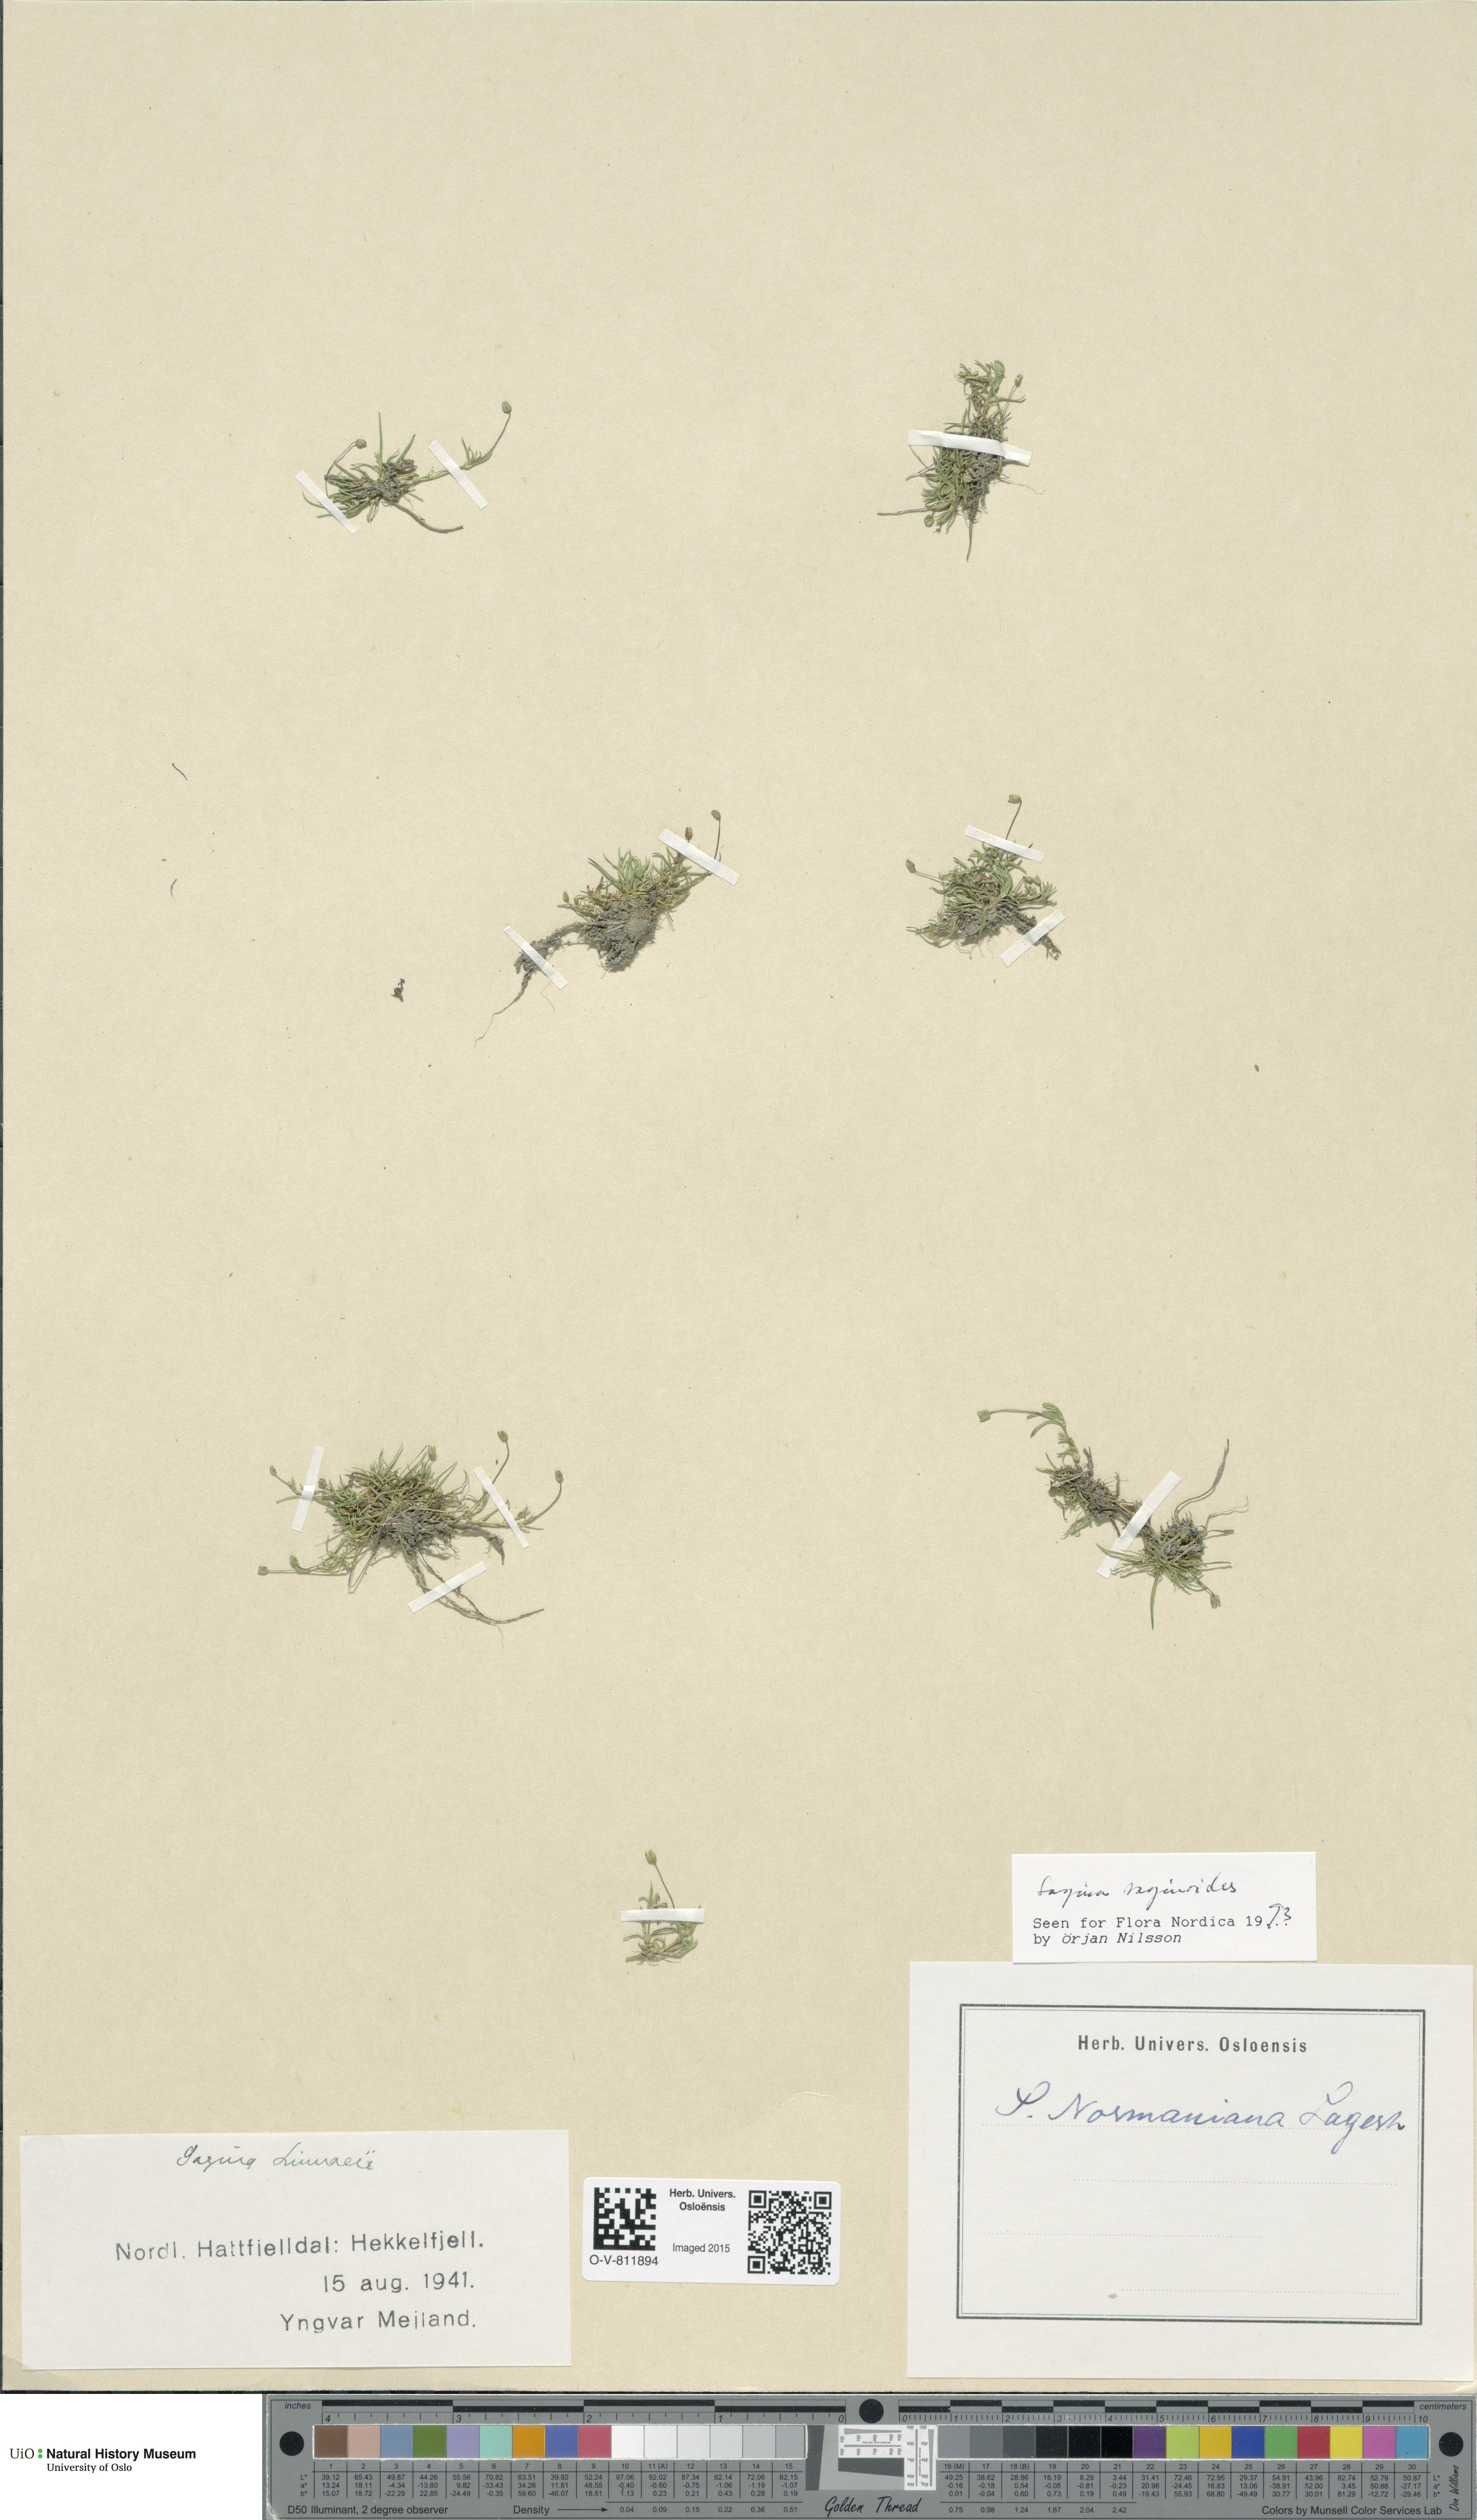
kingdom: Plantae
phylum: Tracheophyta
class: Magnoliopsida
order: Caryophyllales
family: Caryophyllaceae
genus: Sagina
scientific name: Sagina saginoides
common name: Alpine pearlwort
